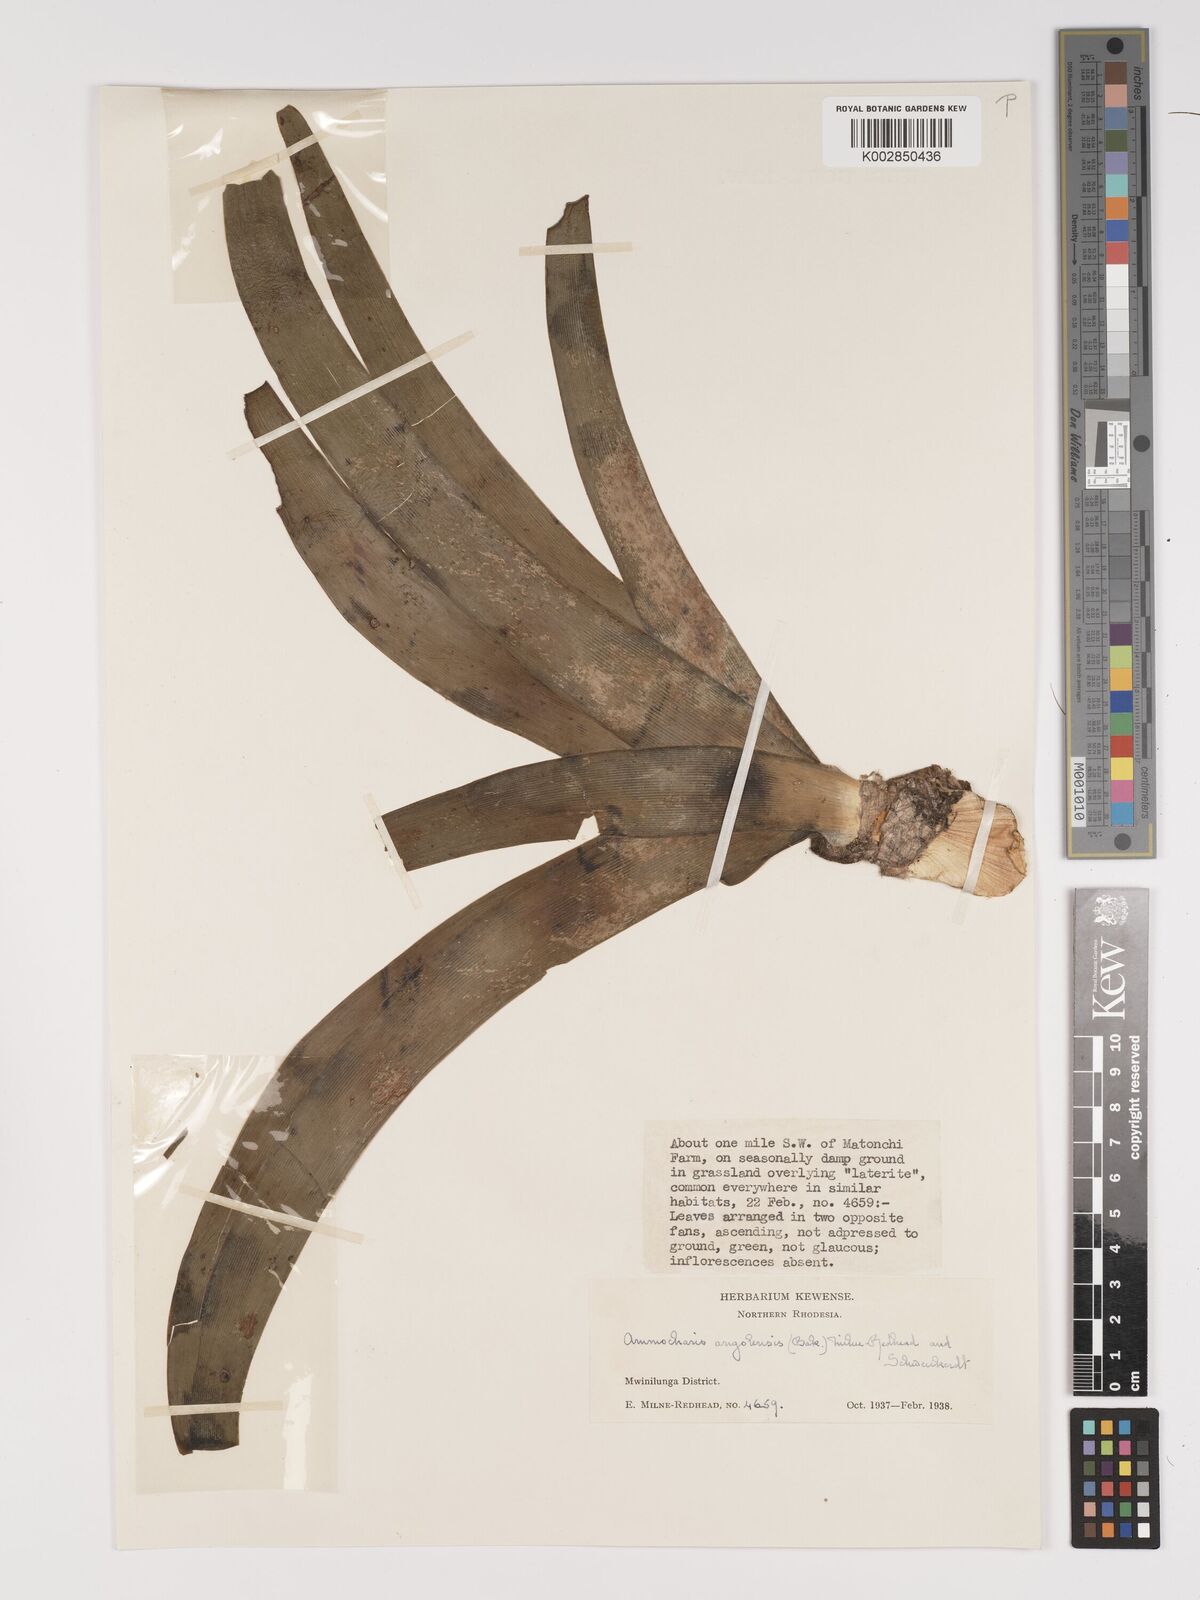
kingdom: Plantae
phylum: Tracheophyta
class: Liliopsida
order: Asparagales
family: Amaryllidaceae
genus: Ammocharis
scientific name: Ammocharis angolensis
